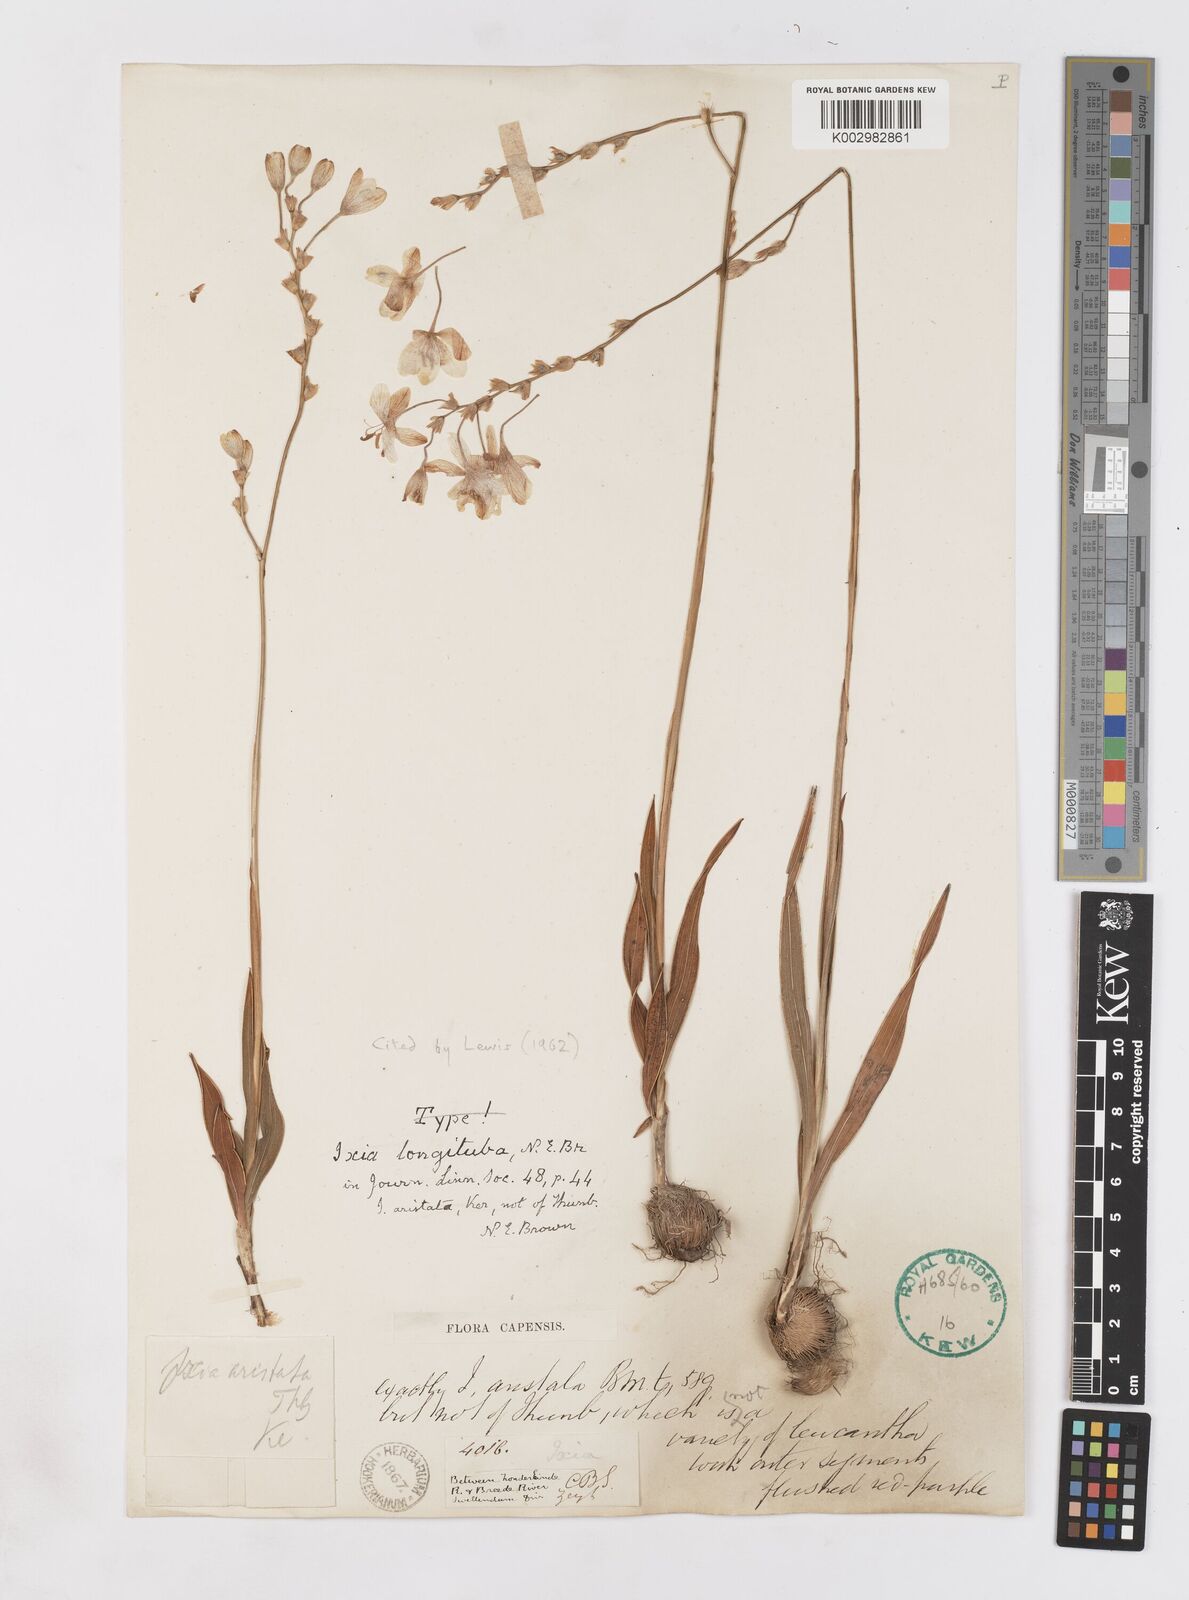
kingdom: Plantae
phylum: Tracheophyta
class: Liliopsida
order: Asparagales
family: Iridaceae
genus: Ixia
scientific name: Ixia longituba
